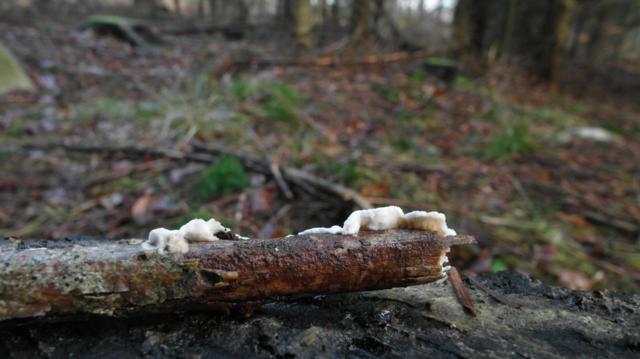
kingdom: Fungi
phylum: Basidiomycota
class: Agaricomycetes
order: Polyporales
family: Irpicaceae
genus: Byssomerulius
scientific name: Byssomerulius corium
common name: læder-åresvamp
